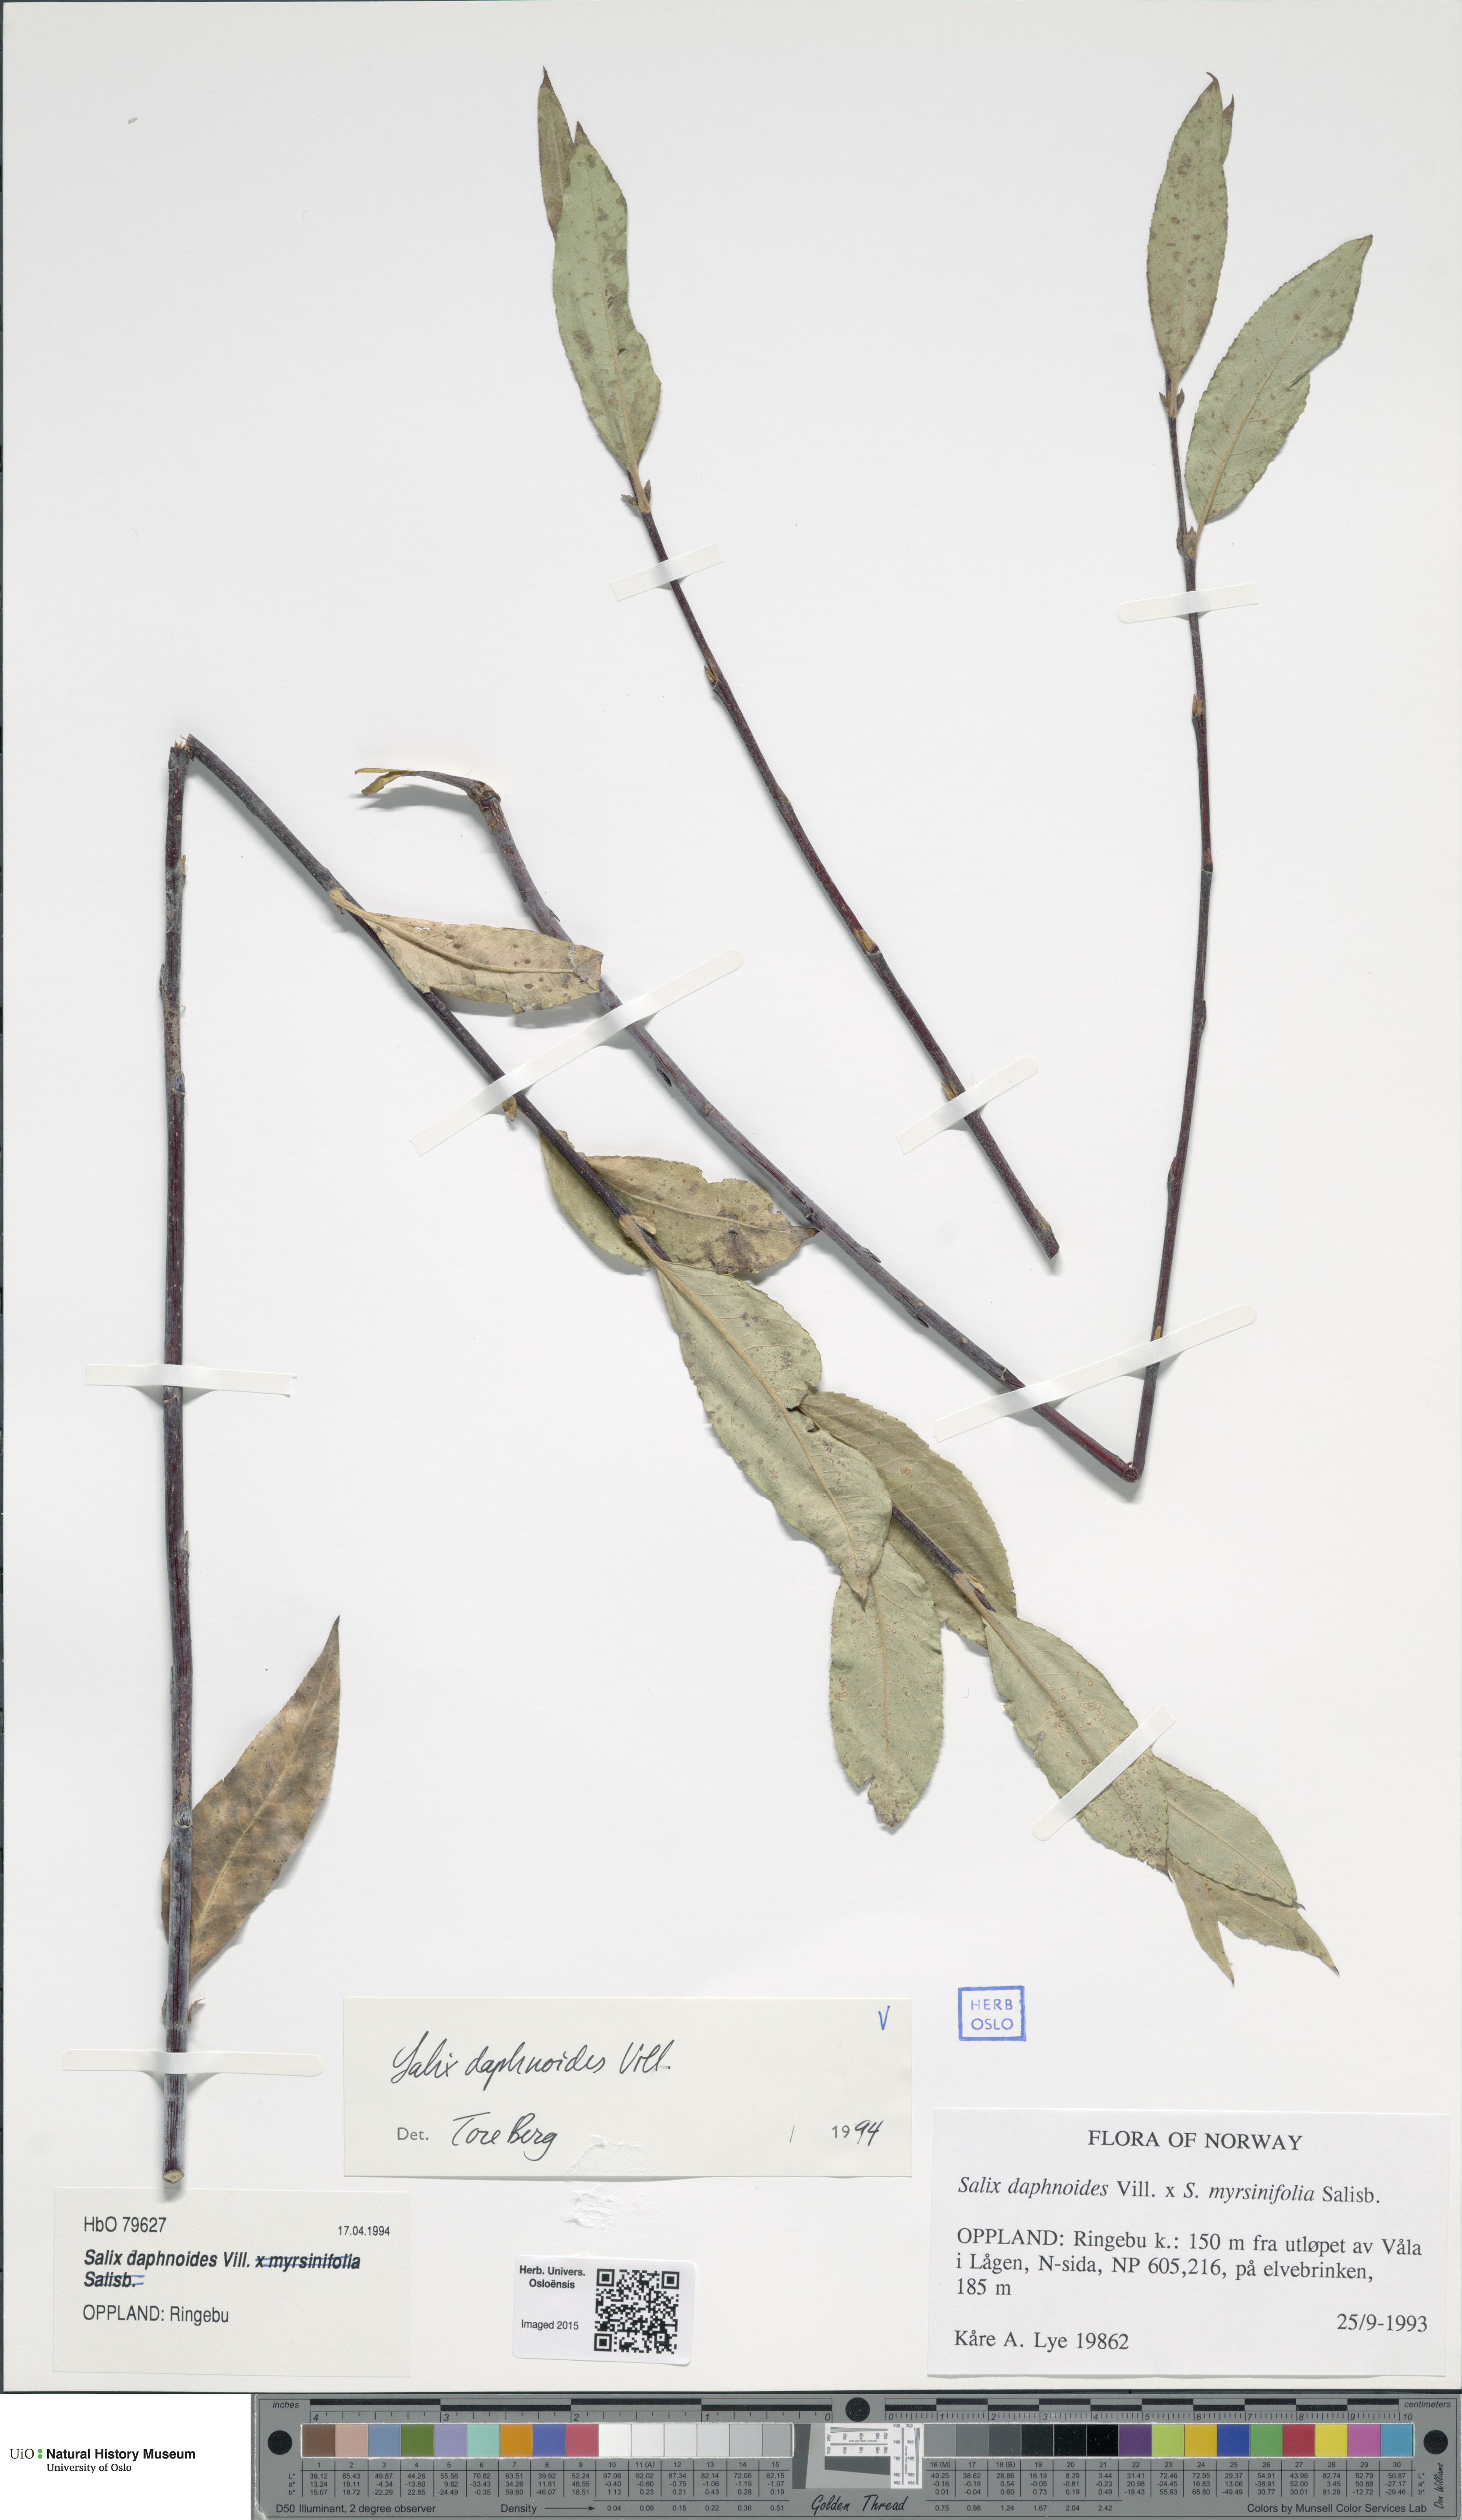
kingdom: Plantae
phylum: Tracheophyta
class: Magnoliopsida
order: Malpighiales
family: Salicaceae
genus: Salix
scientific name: Salix daphnoides
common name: European violet-willow
